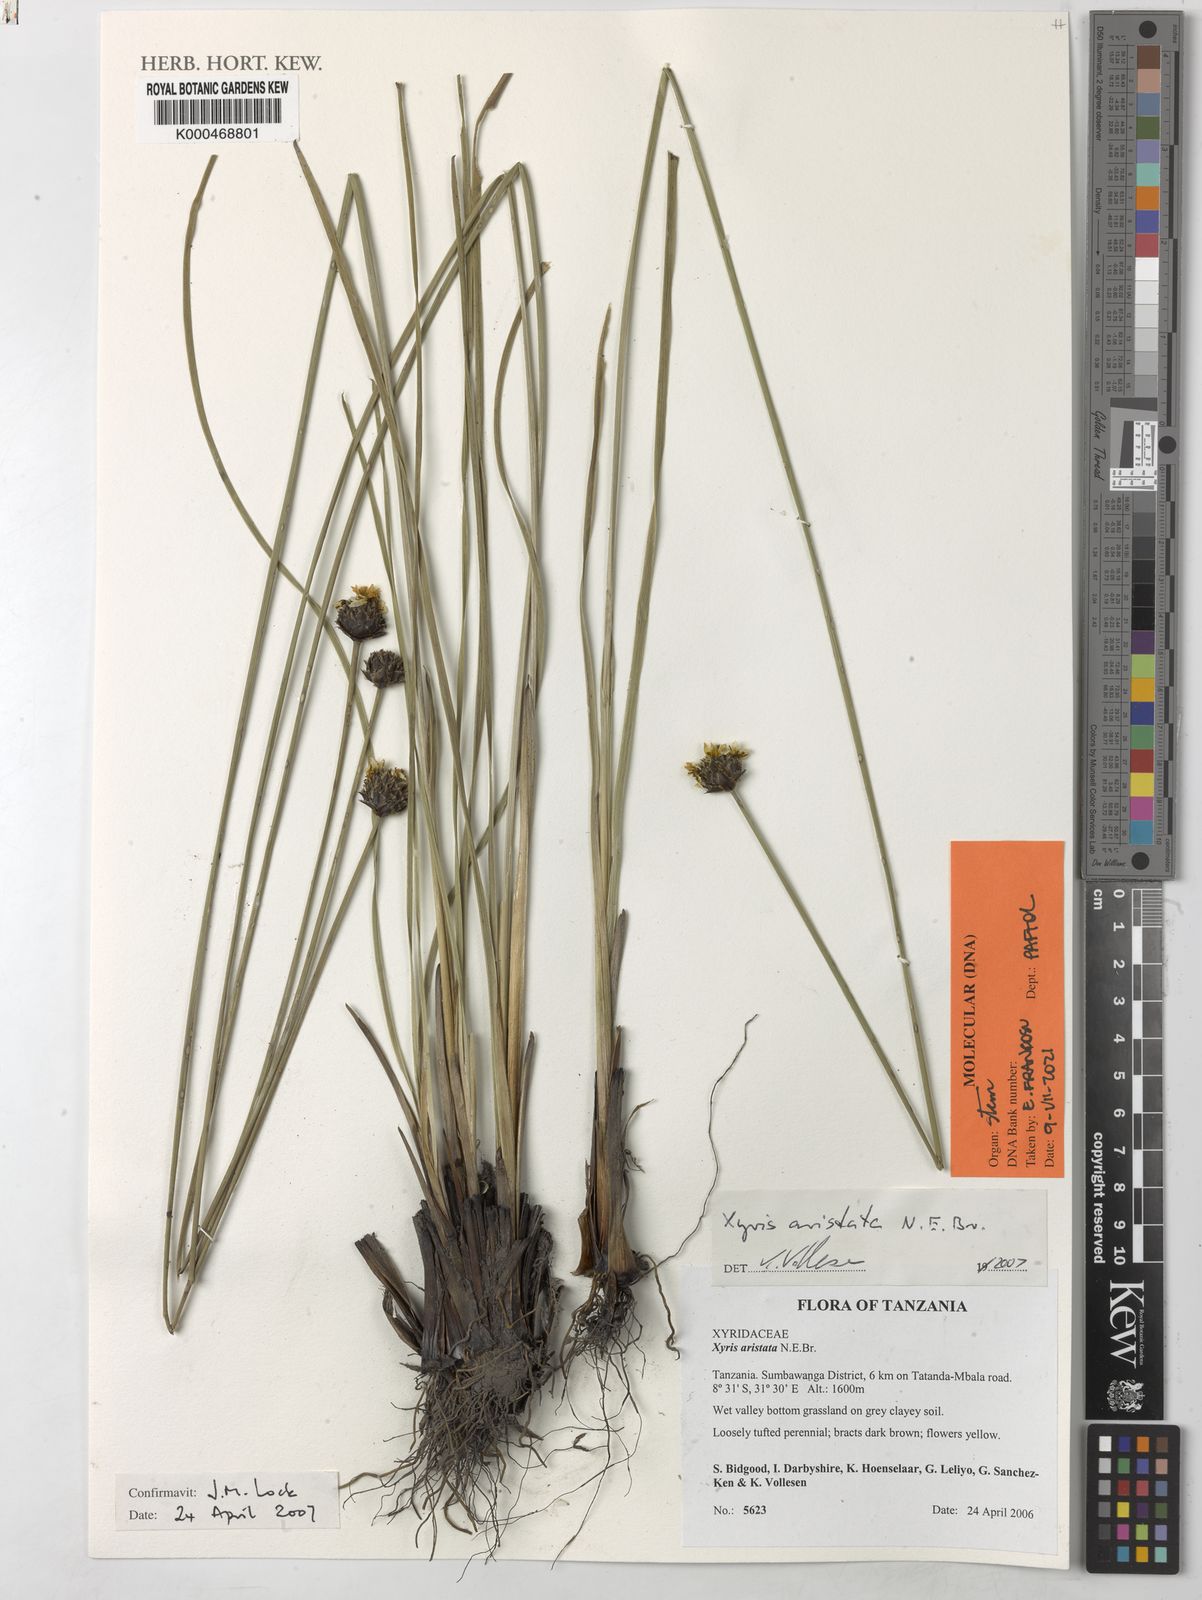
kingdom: Plantae
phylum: Tracheophyta
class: Liliopsida
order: Poales
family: Xyridaceae
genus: Xyris
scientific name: Xyris aristata
